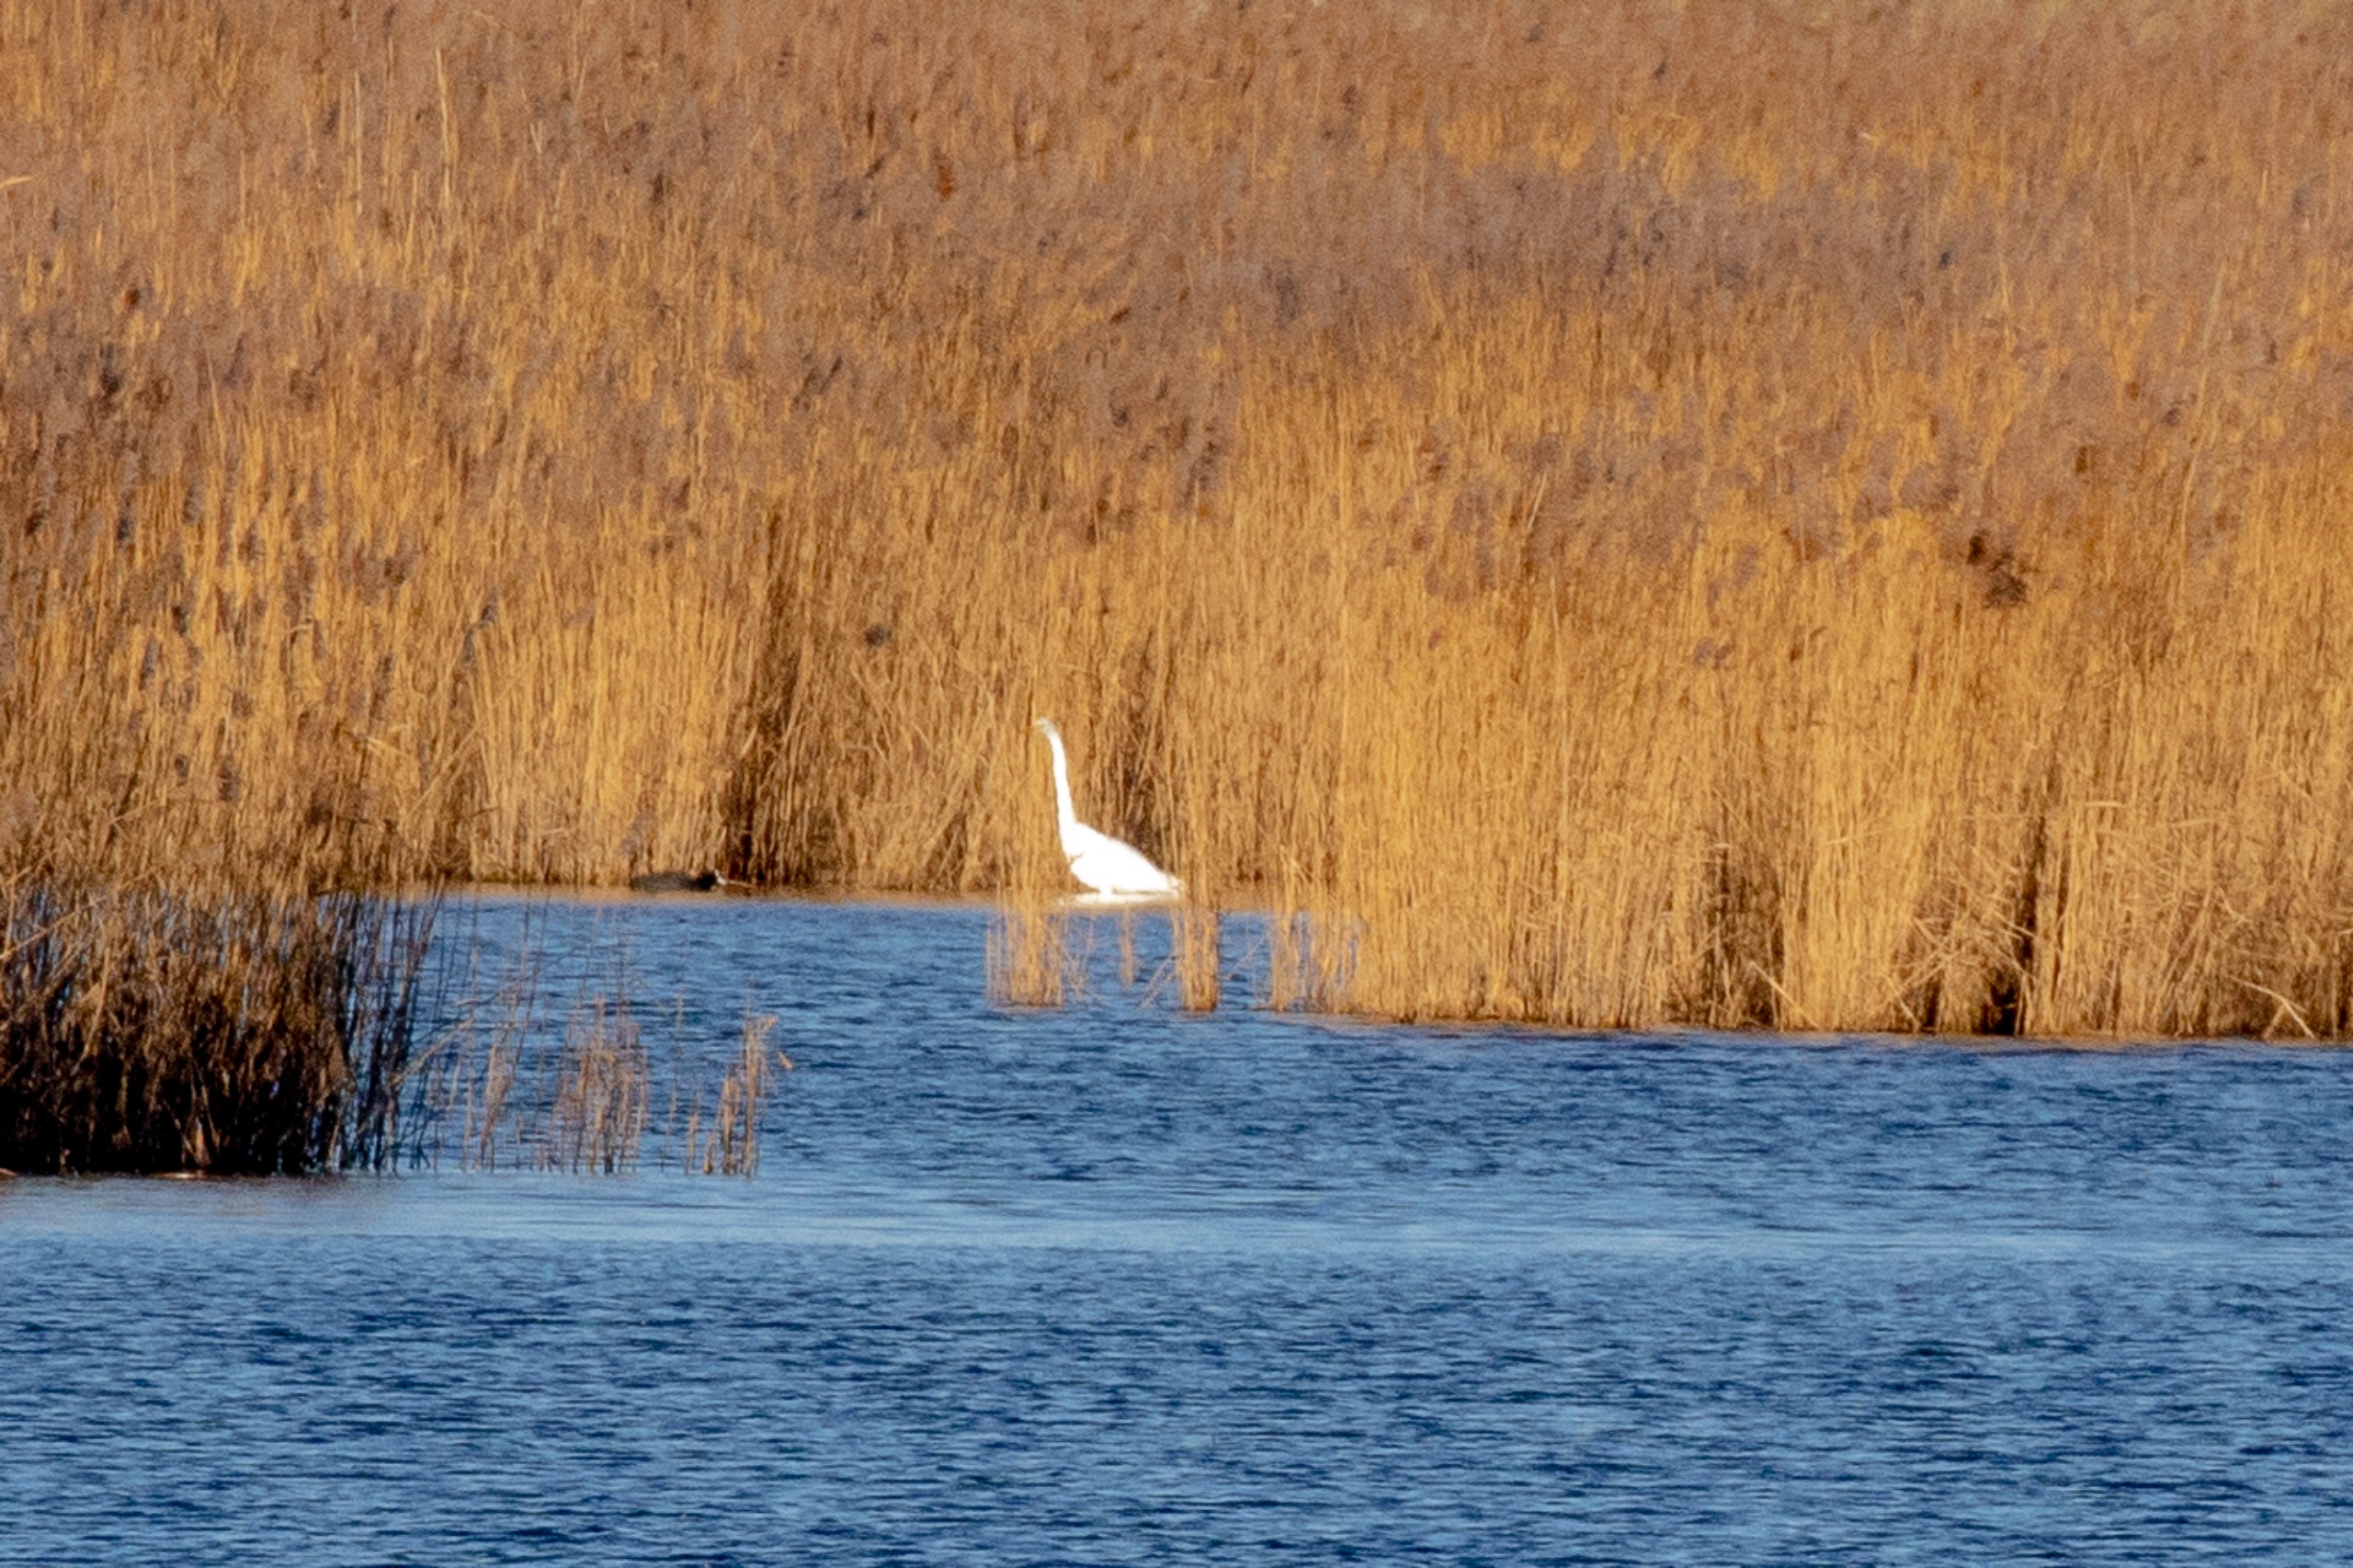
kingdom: Animalia
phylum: Chordata
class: Aves
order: Pelecaniformes
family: Ardeidae
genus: Ardea
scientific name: Ardea alba
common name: Sølvhejre
